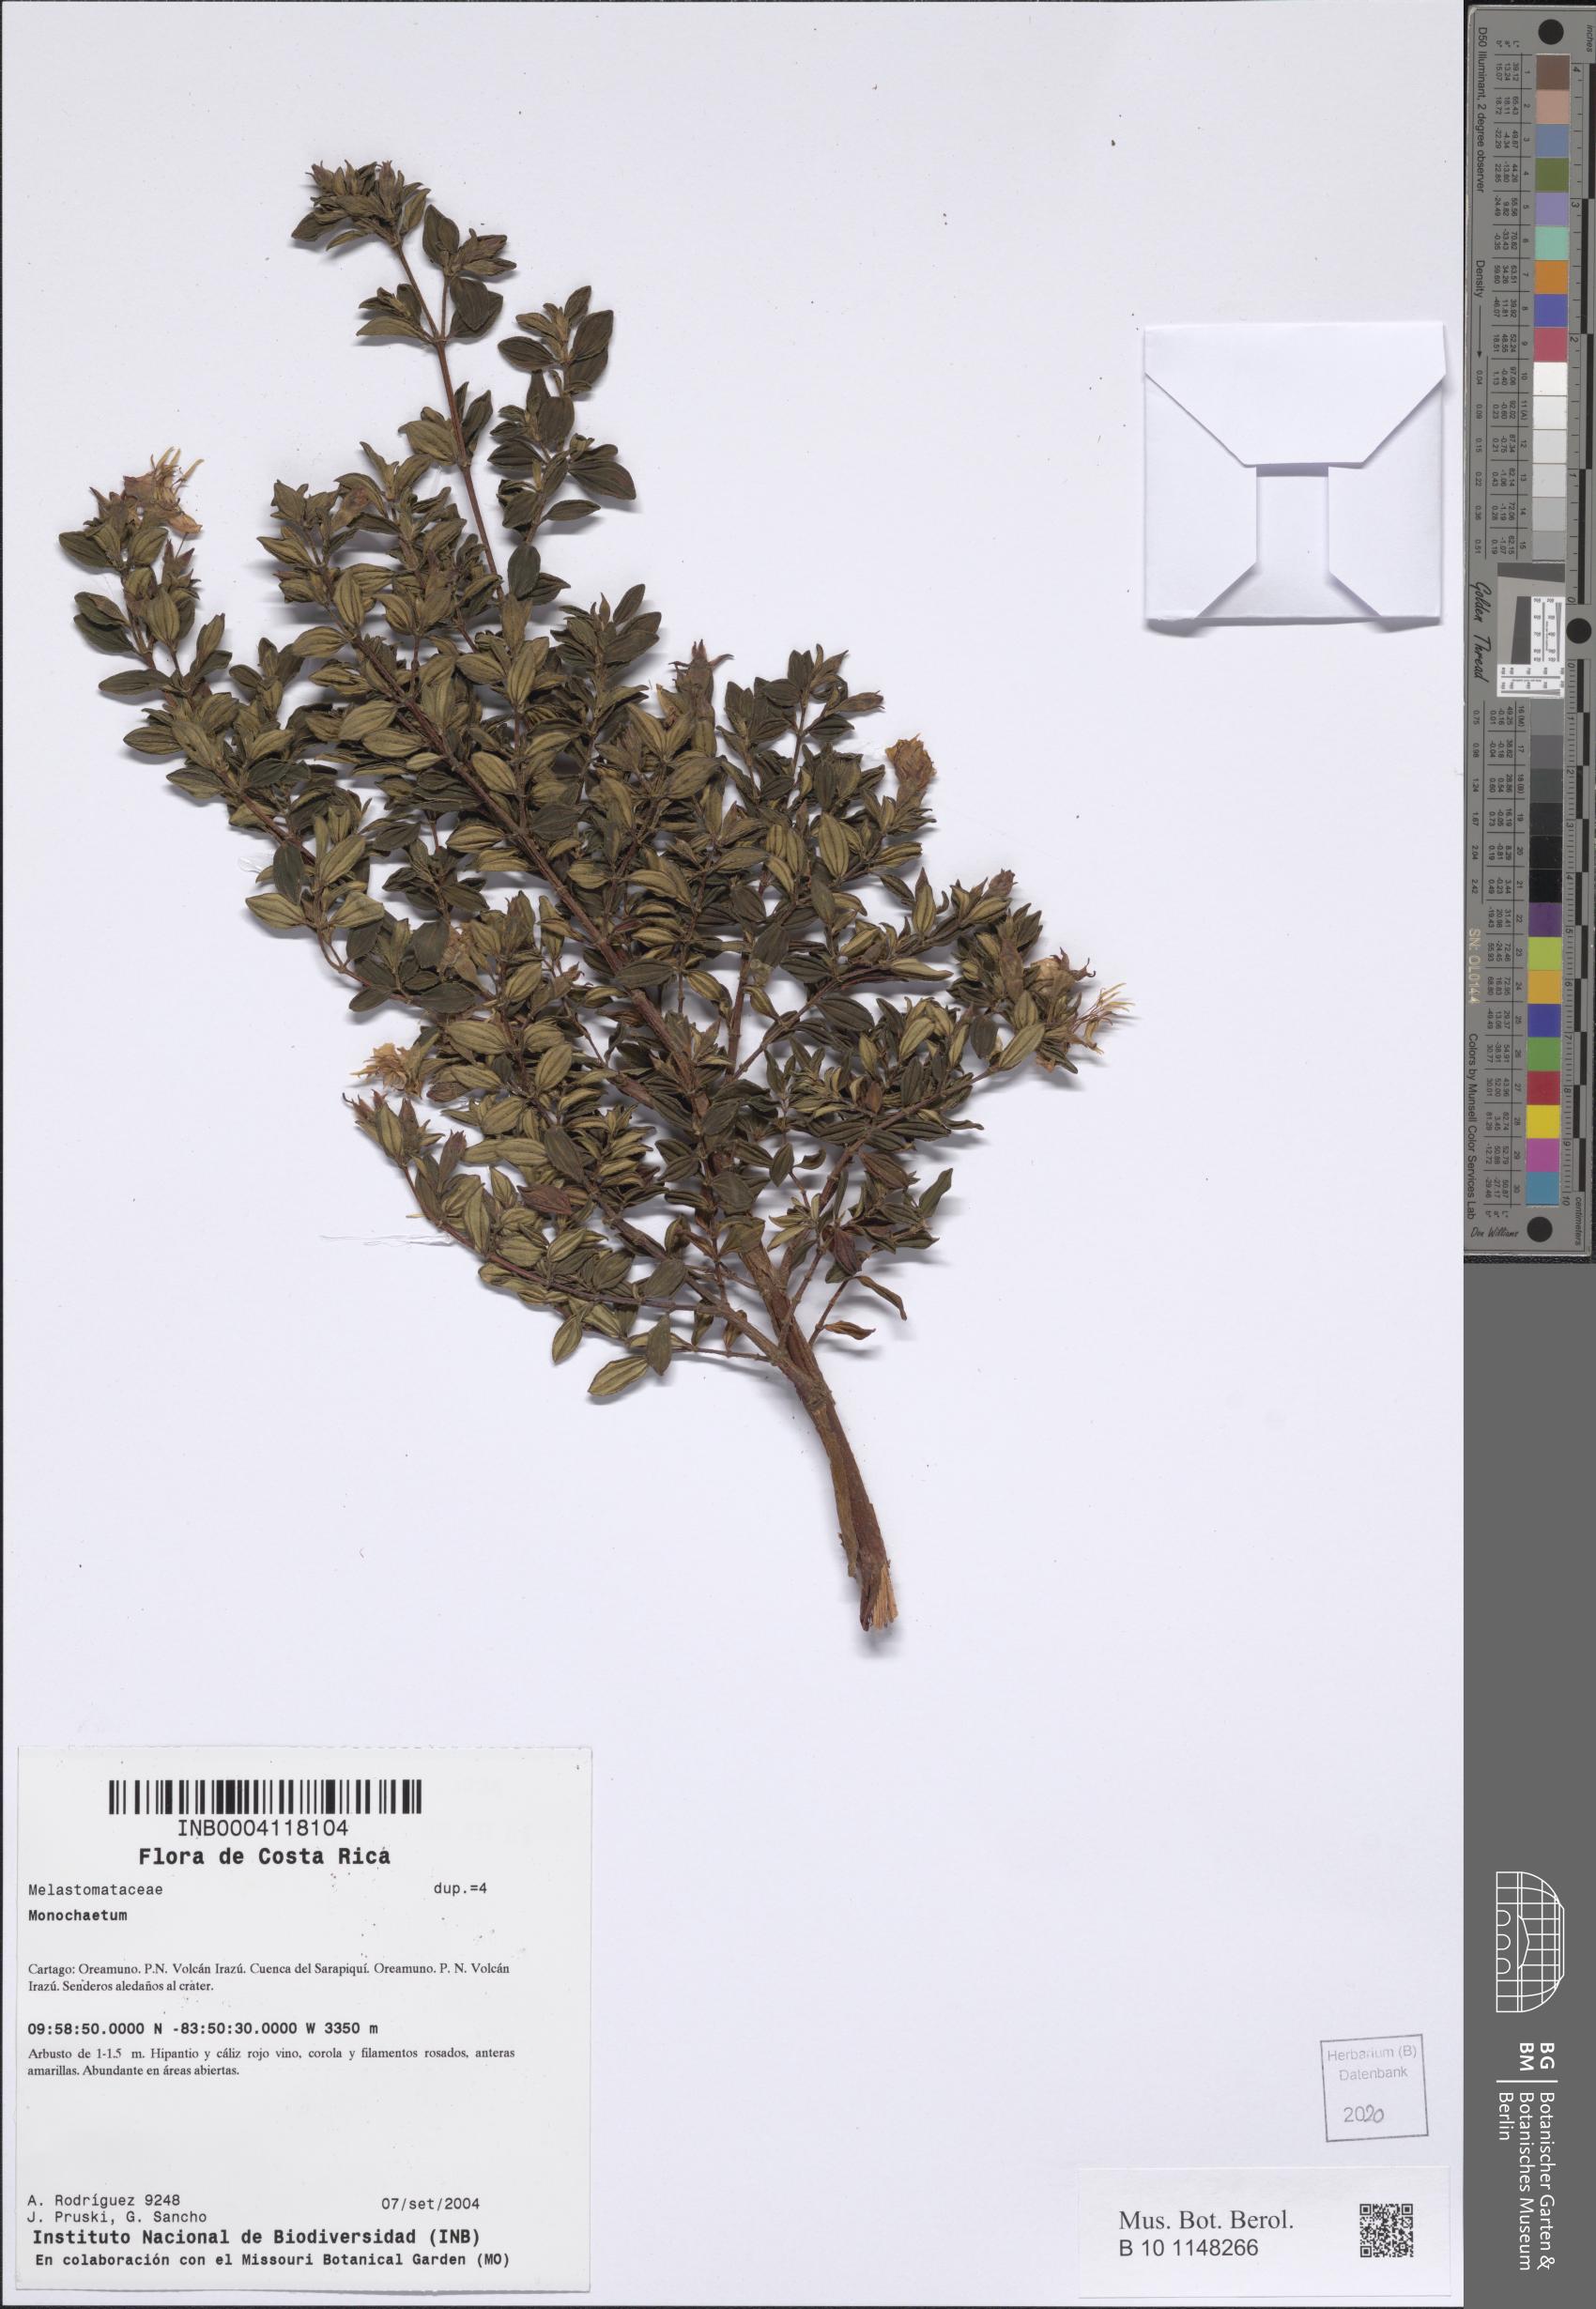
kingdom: Plantae
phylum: Tracheophyta
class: Magnoliopsida
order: Myrtales
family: Melastomataceae
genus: Monochaetum
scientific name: Monochaetum
